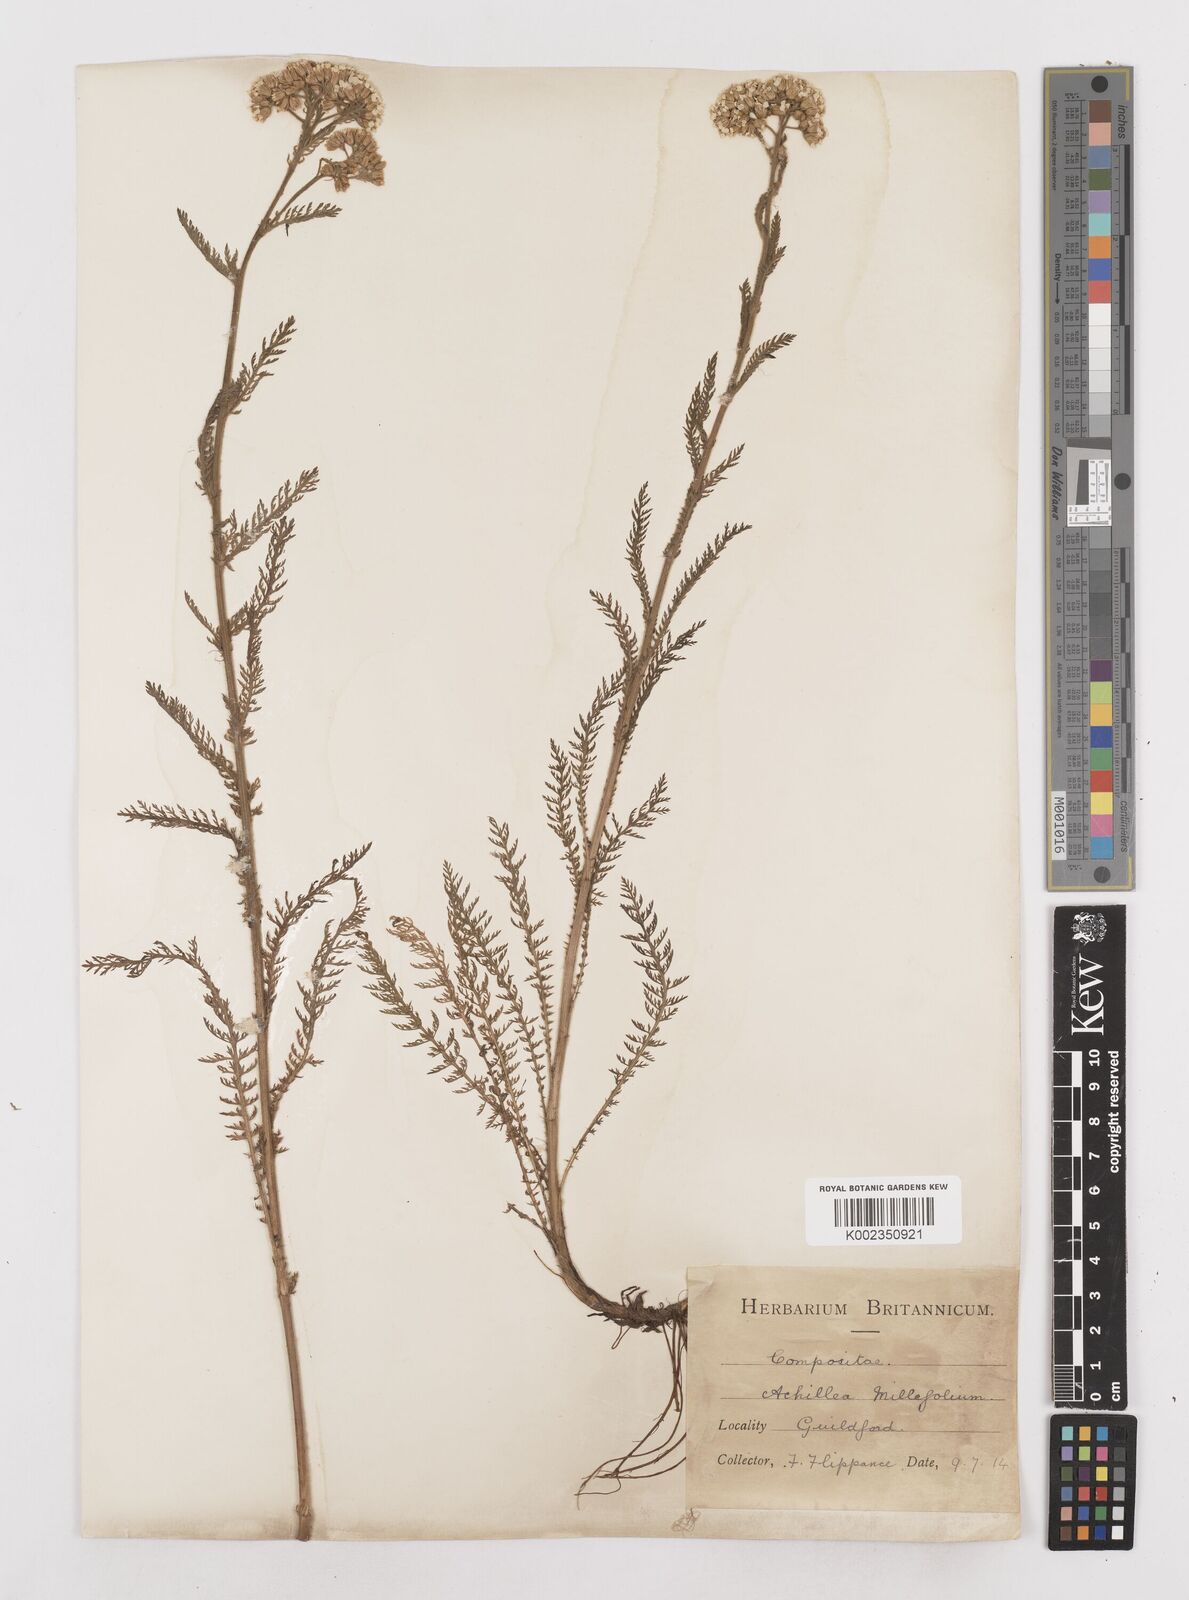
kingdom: Plantae
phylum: Tracheophyta
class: Magnoliopsida
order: Asterales
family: Asteraceae
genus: Achillea
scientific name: Achillea millefolium
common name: Yarrow
